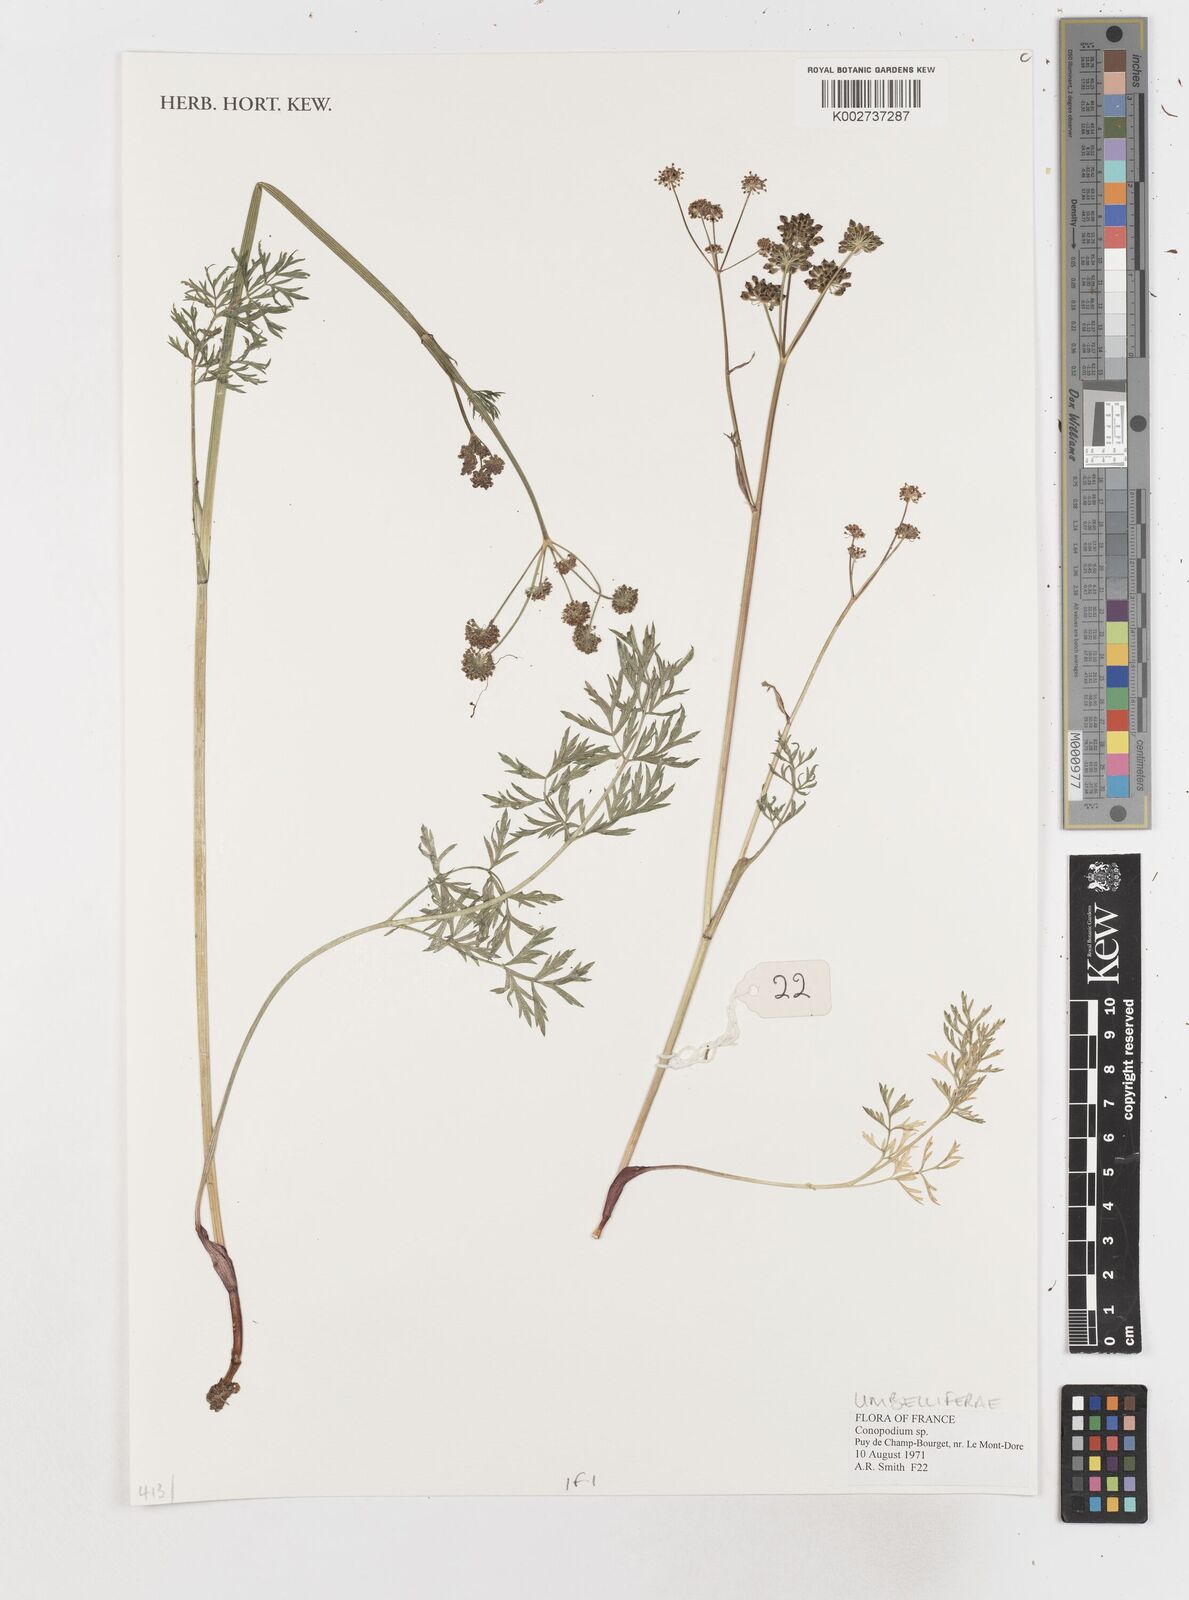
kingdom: Plantae
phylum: Tracheophyta
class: Magnoliopsida
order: Apiales
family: Apiaceae
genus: Conopodium
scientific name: Conopodium
